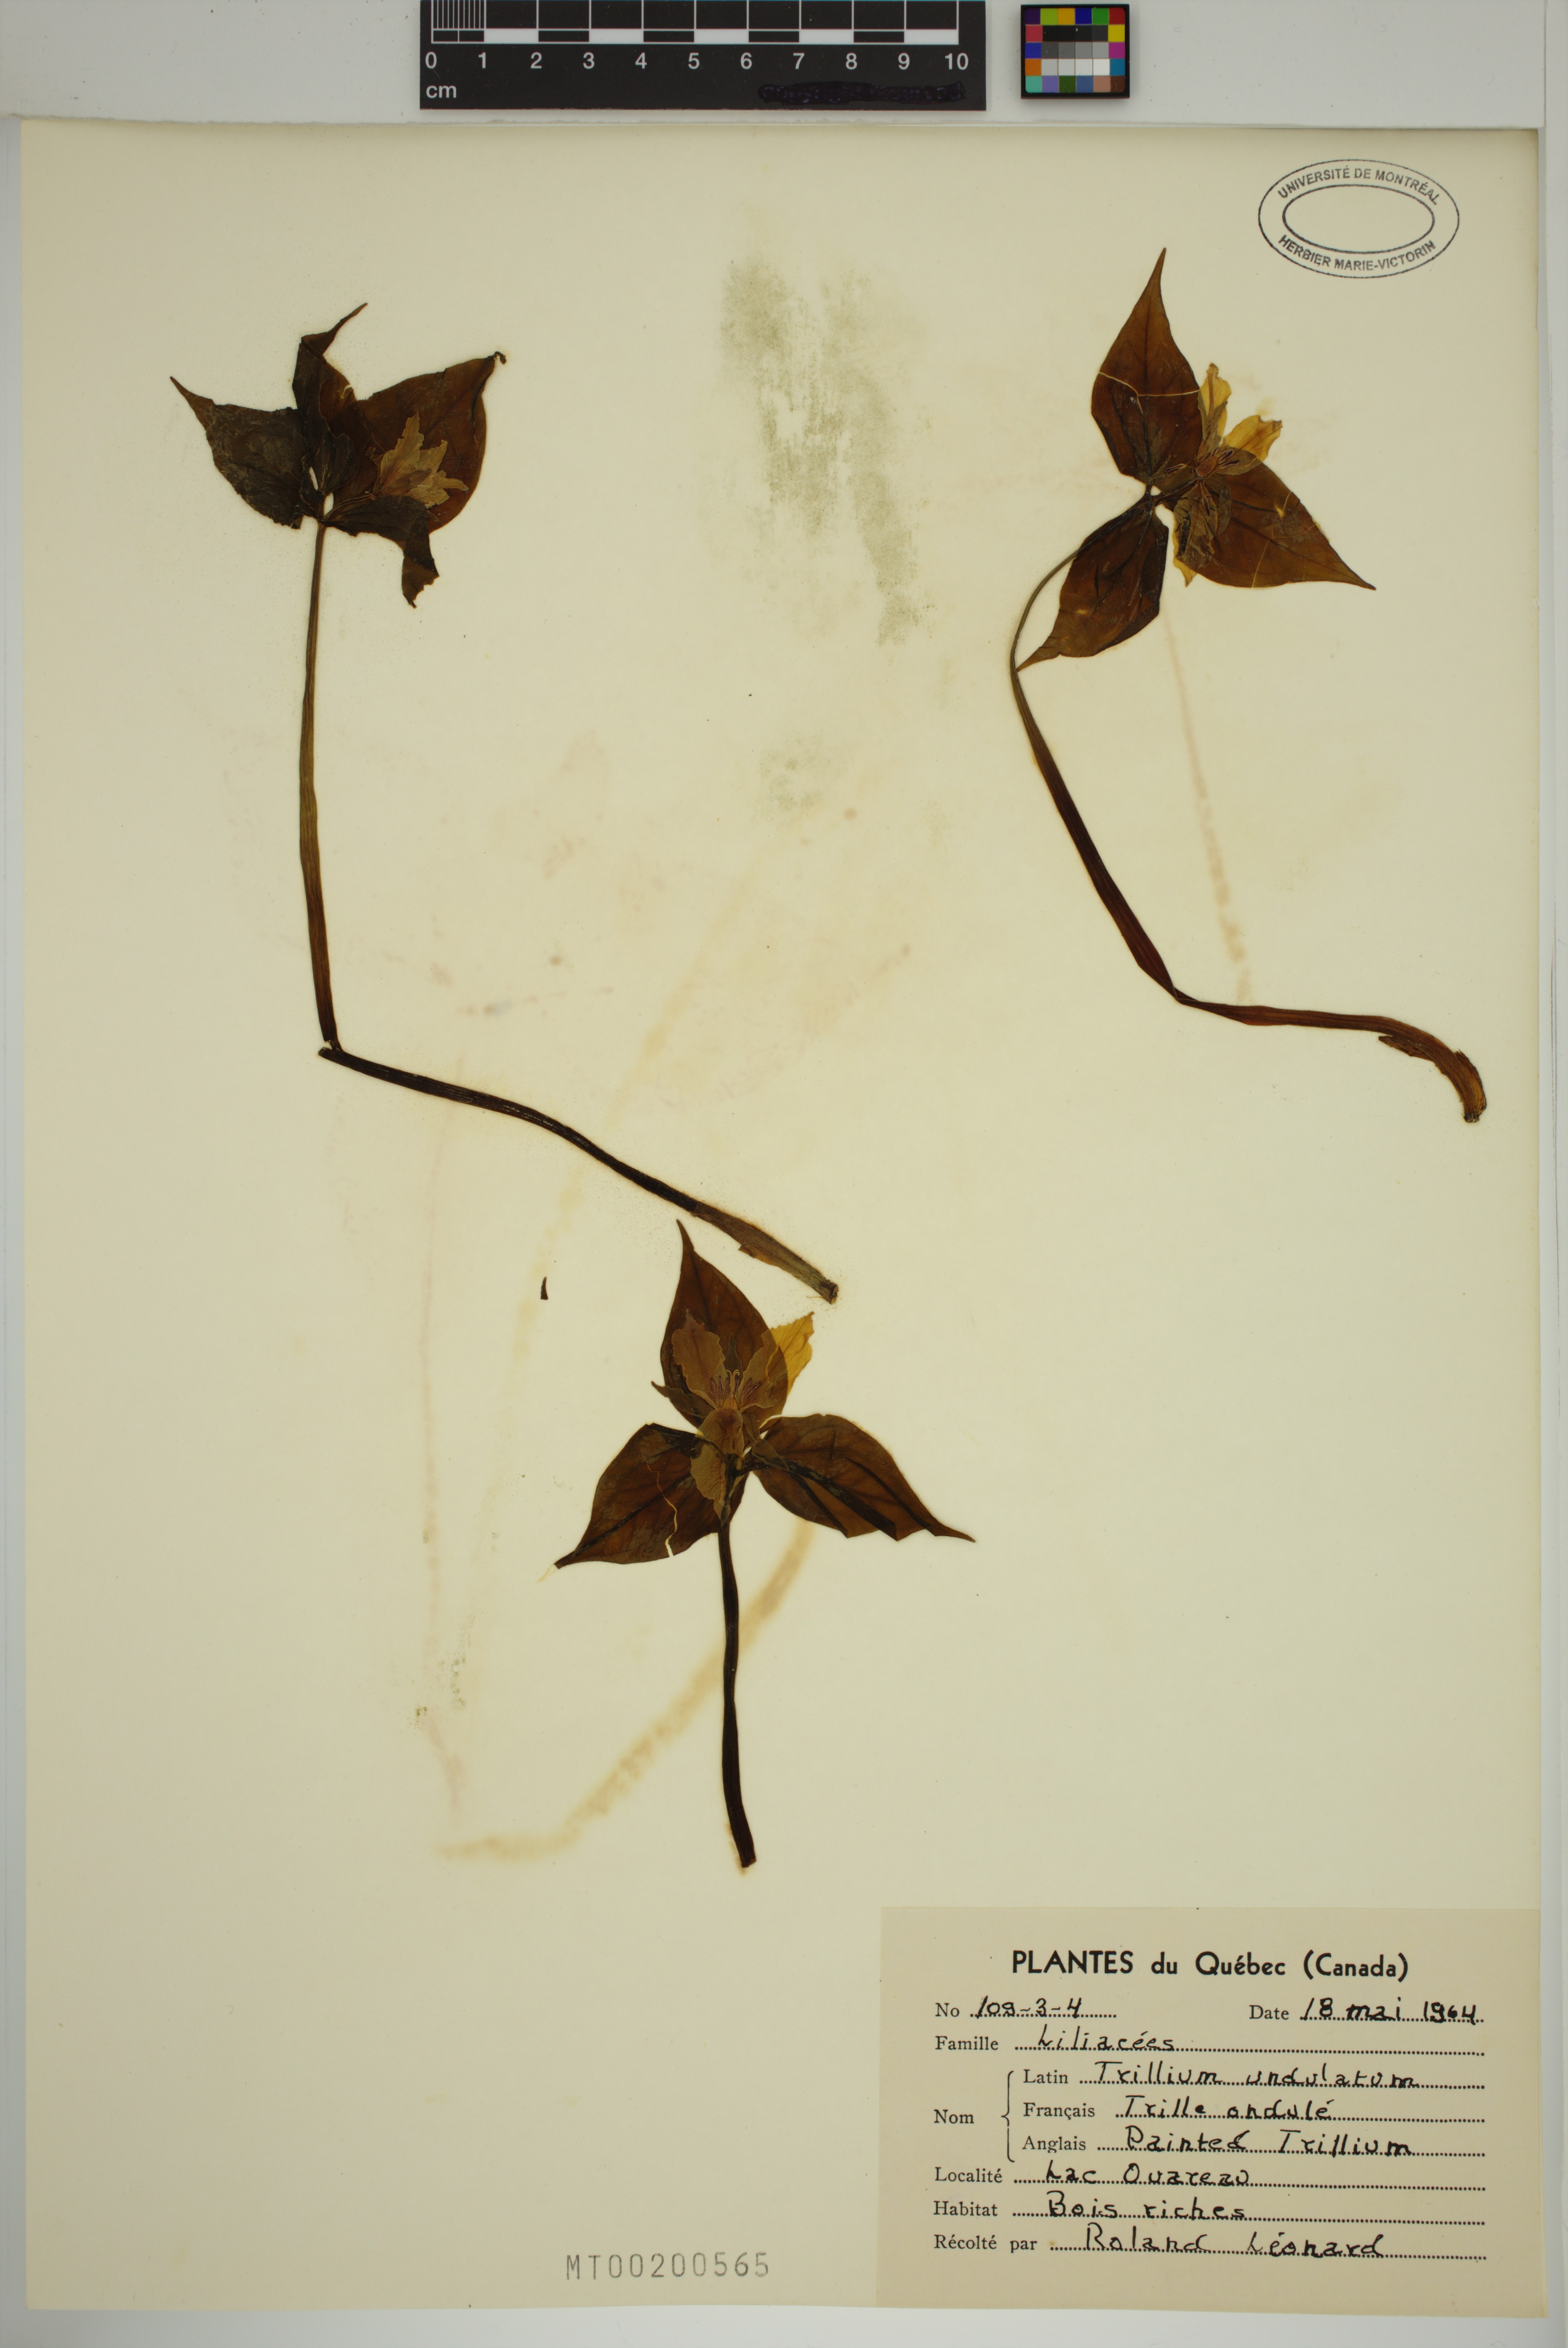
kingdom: Plantae
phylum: Tracheophyta
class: Liliopsida
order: Liliales
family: Melanthiaceae
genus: Trillium
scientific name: Trillium undulatum
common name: Paint trillium
